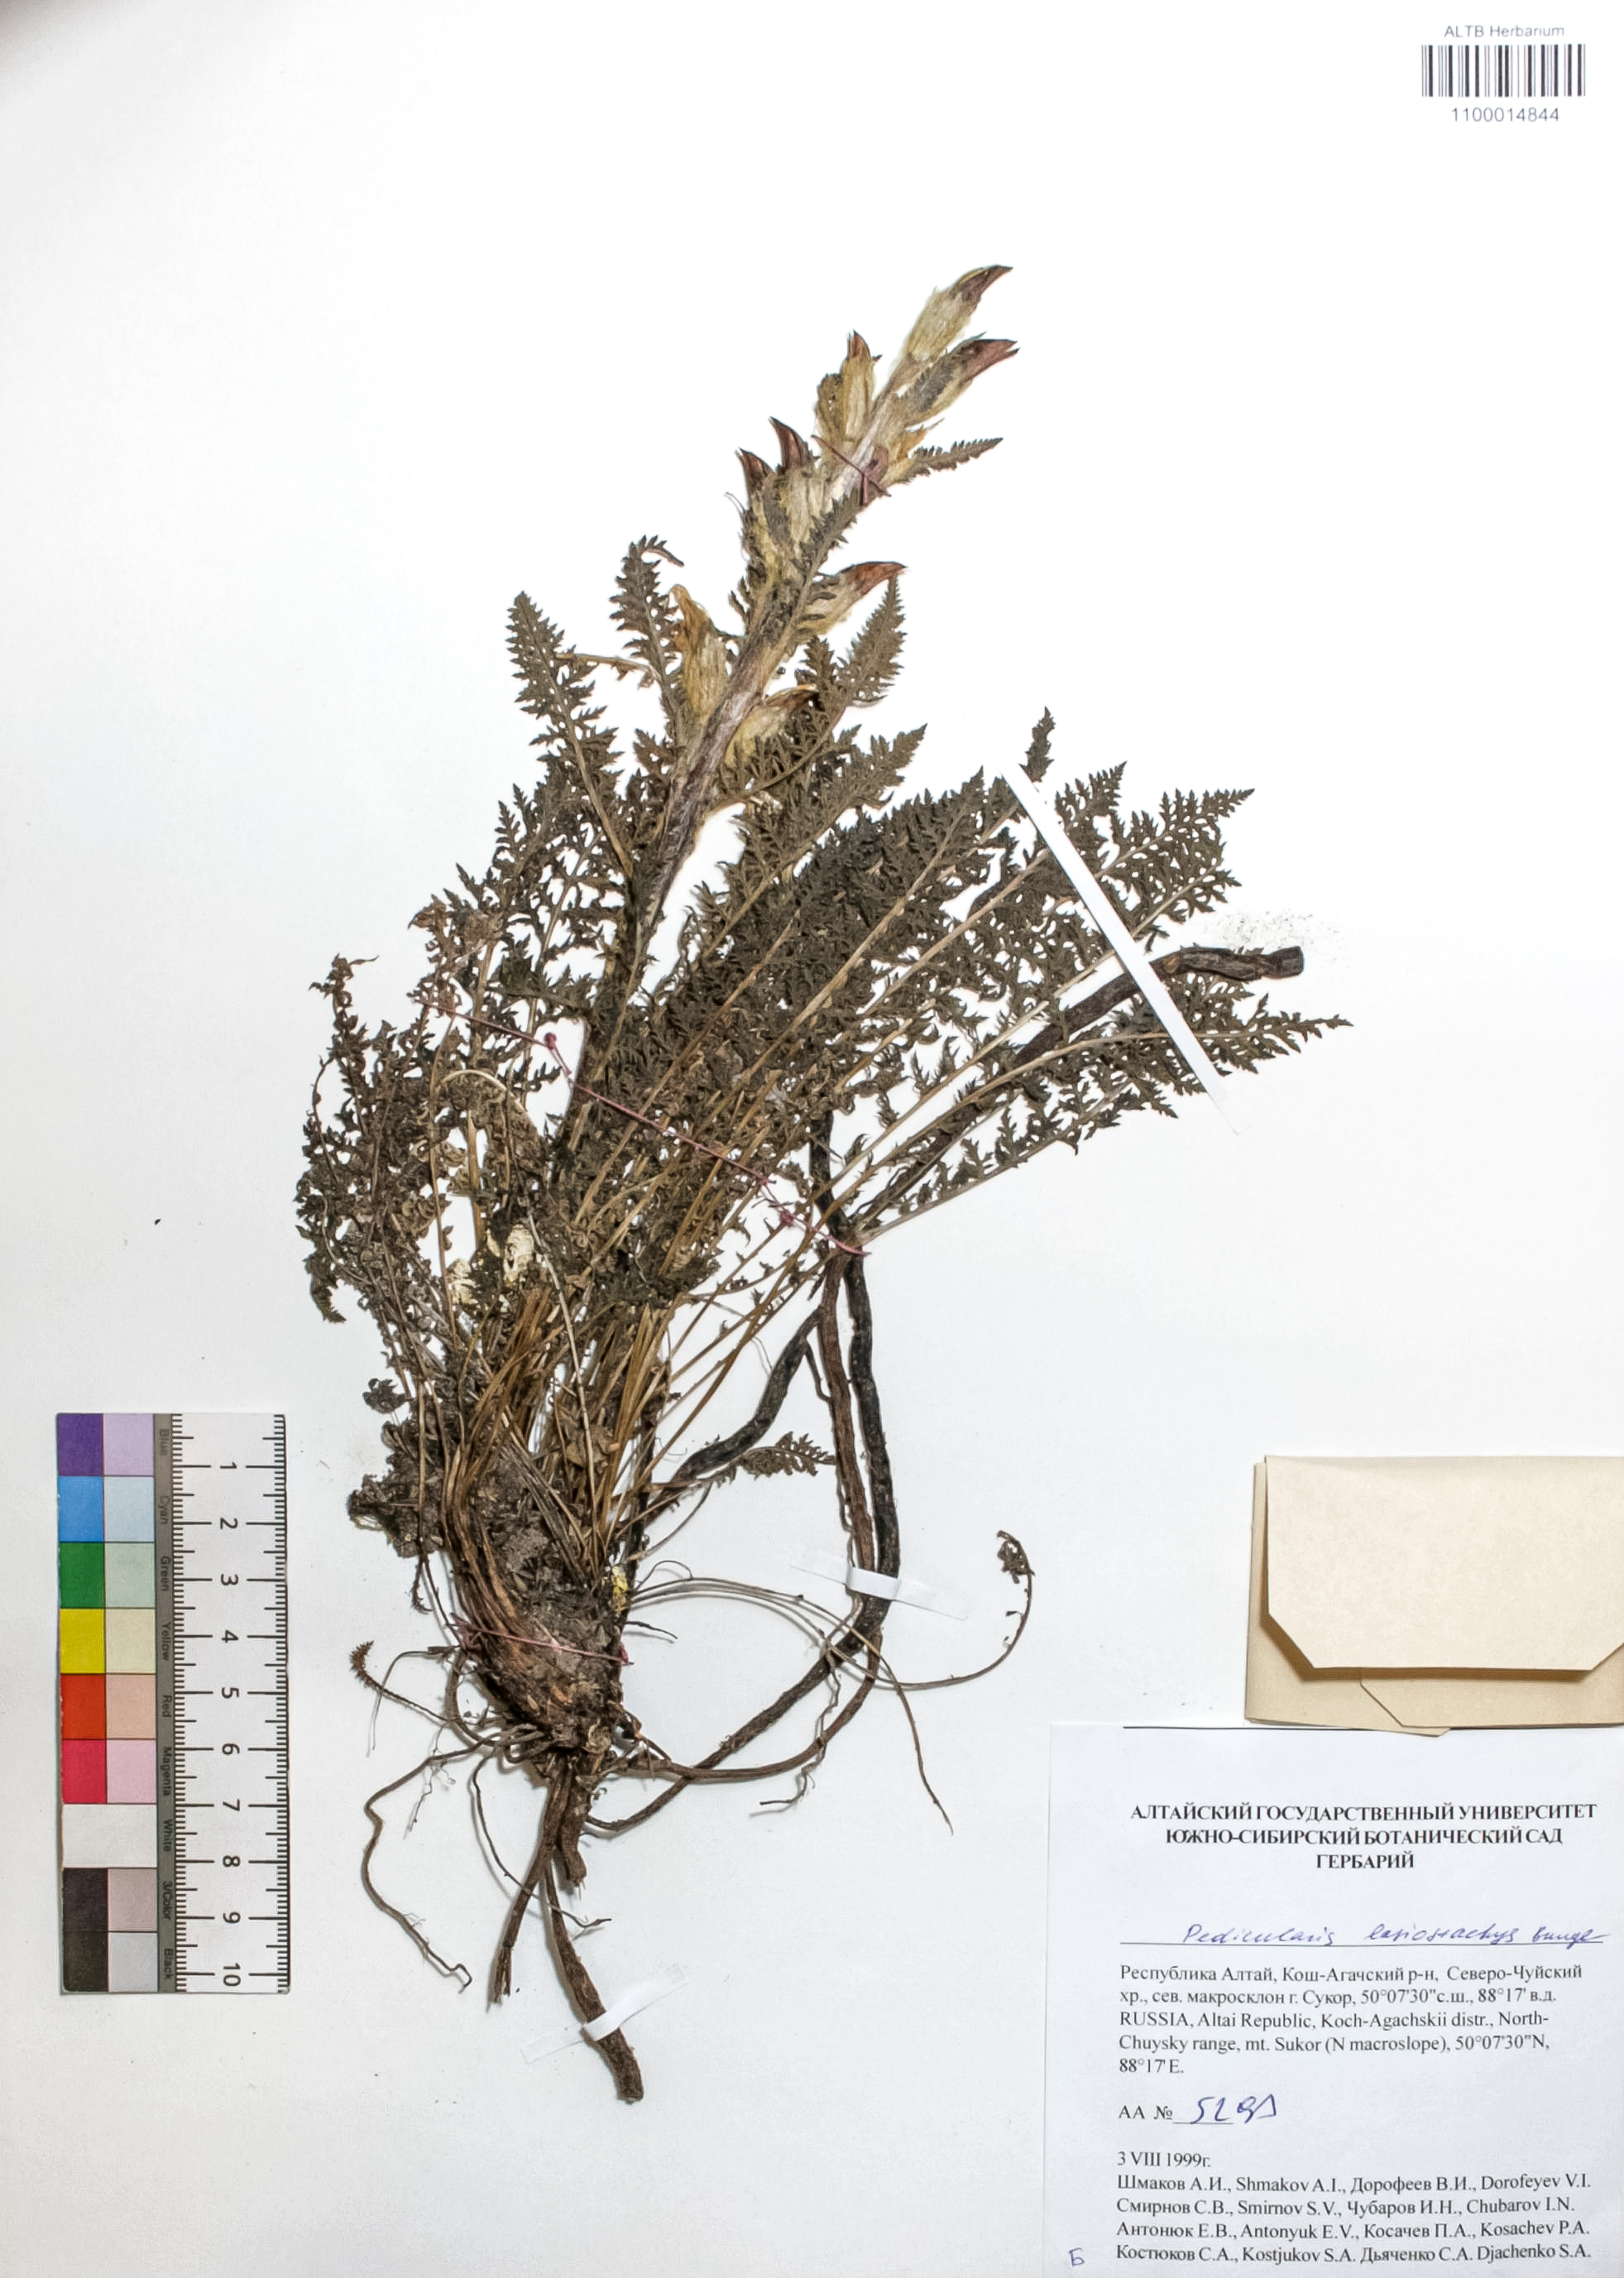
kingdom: Plantae
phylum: Tracheophyta
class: Magnoliopsida
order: Lamiales
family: Orobanchaceae
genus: Pedicularis
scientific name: Pedicularis lasiostachys
